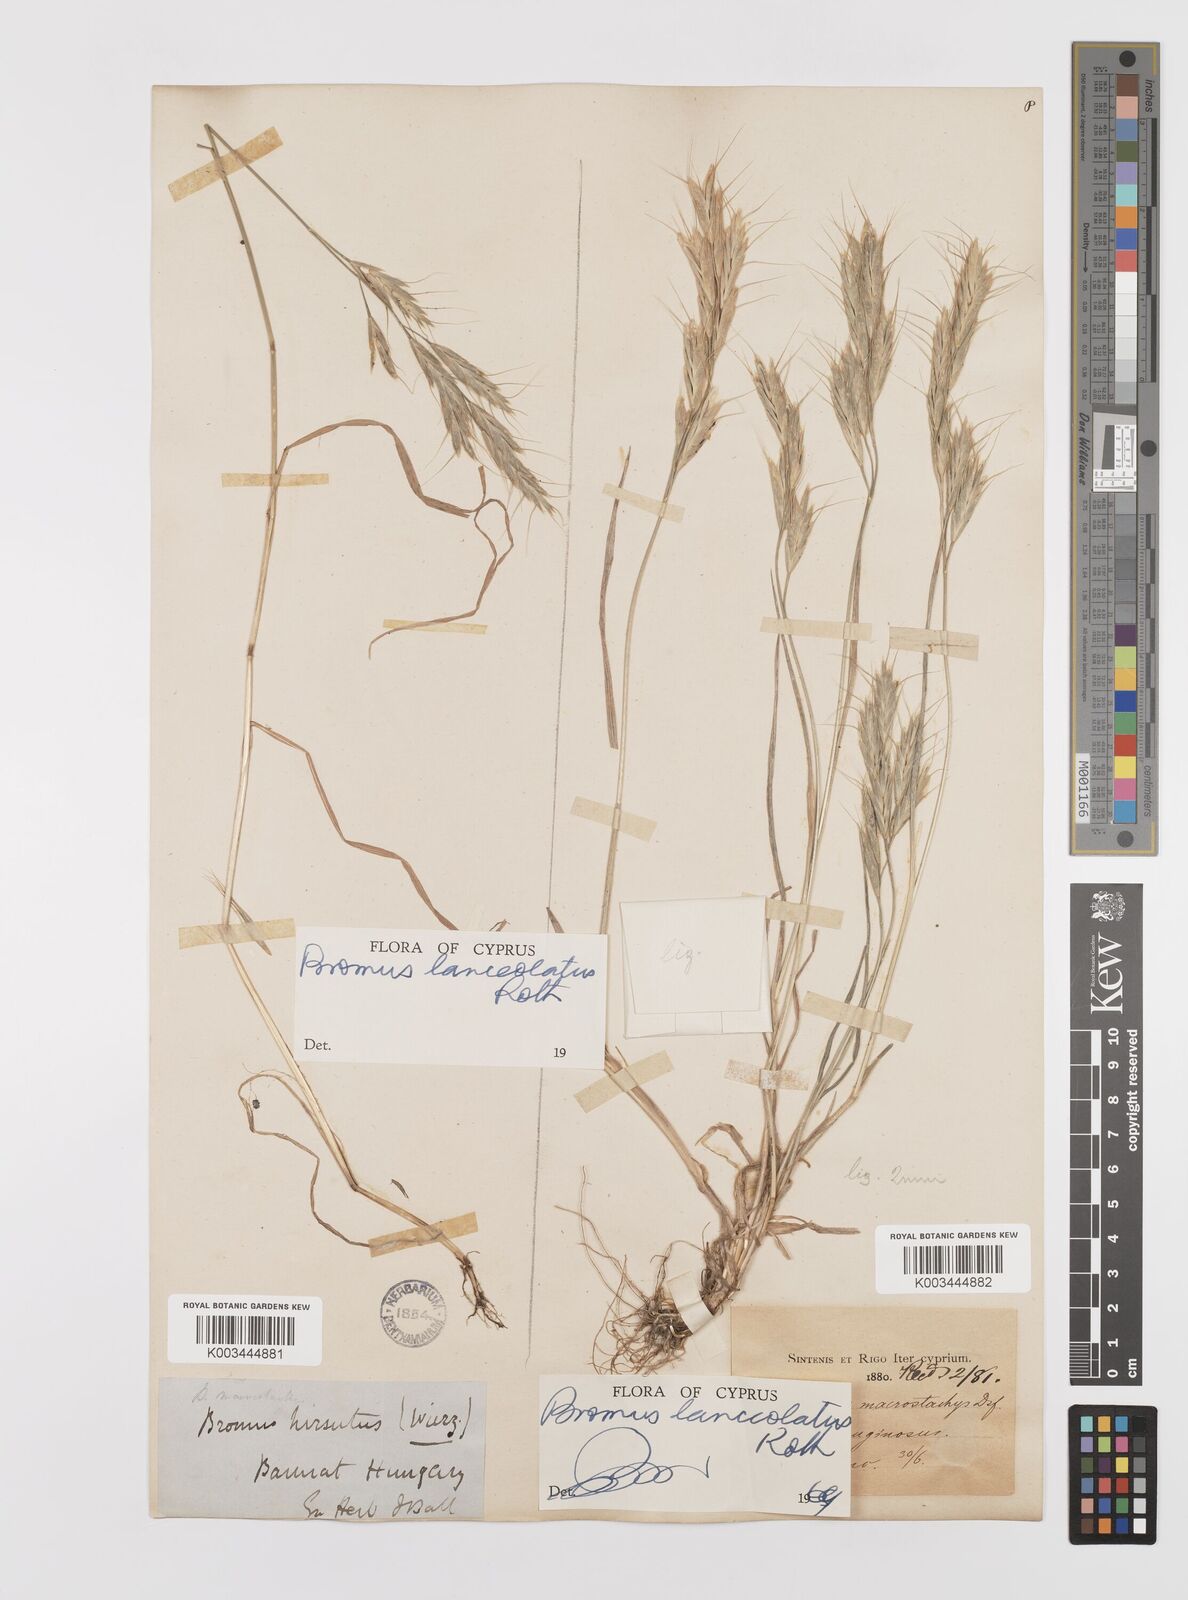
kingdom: Plantae
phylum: Tracheophyta
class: Liliopsida
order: Poales
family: Poaceae
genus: Bromus
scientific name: Bromus lanceolatus
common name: Mediterranean brome
